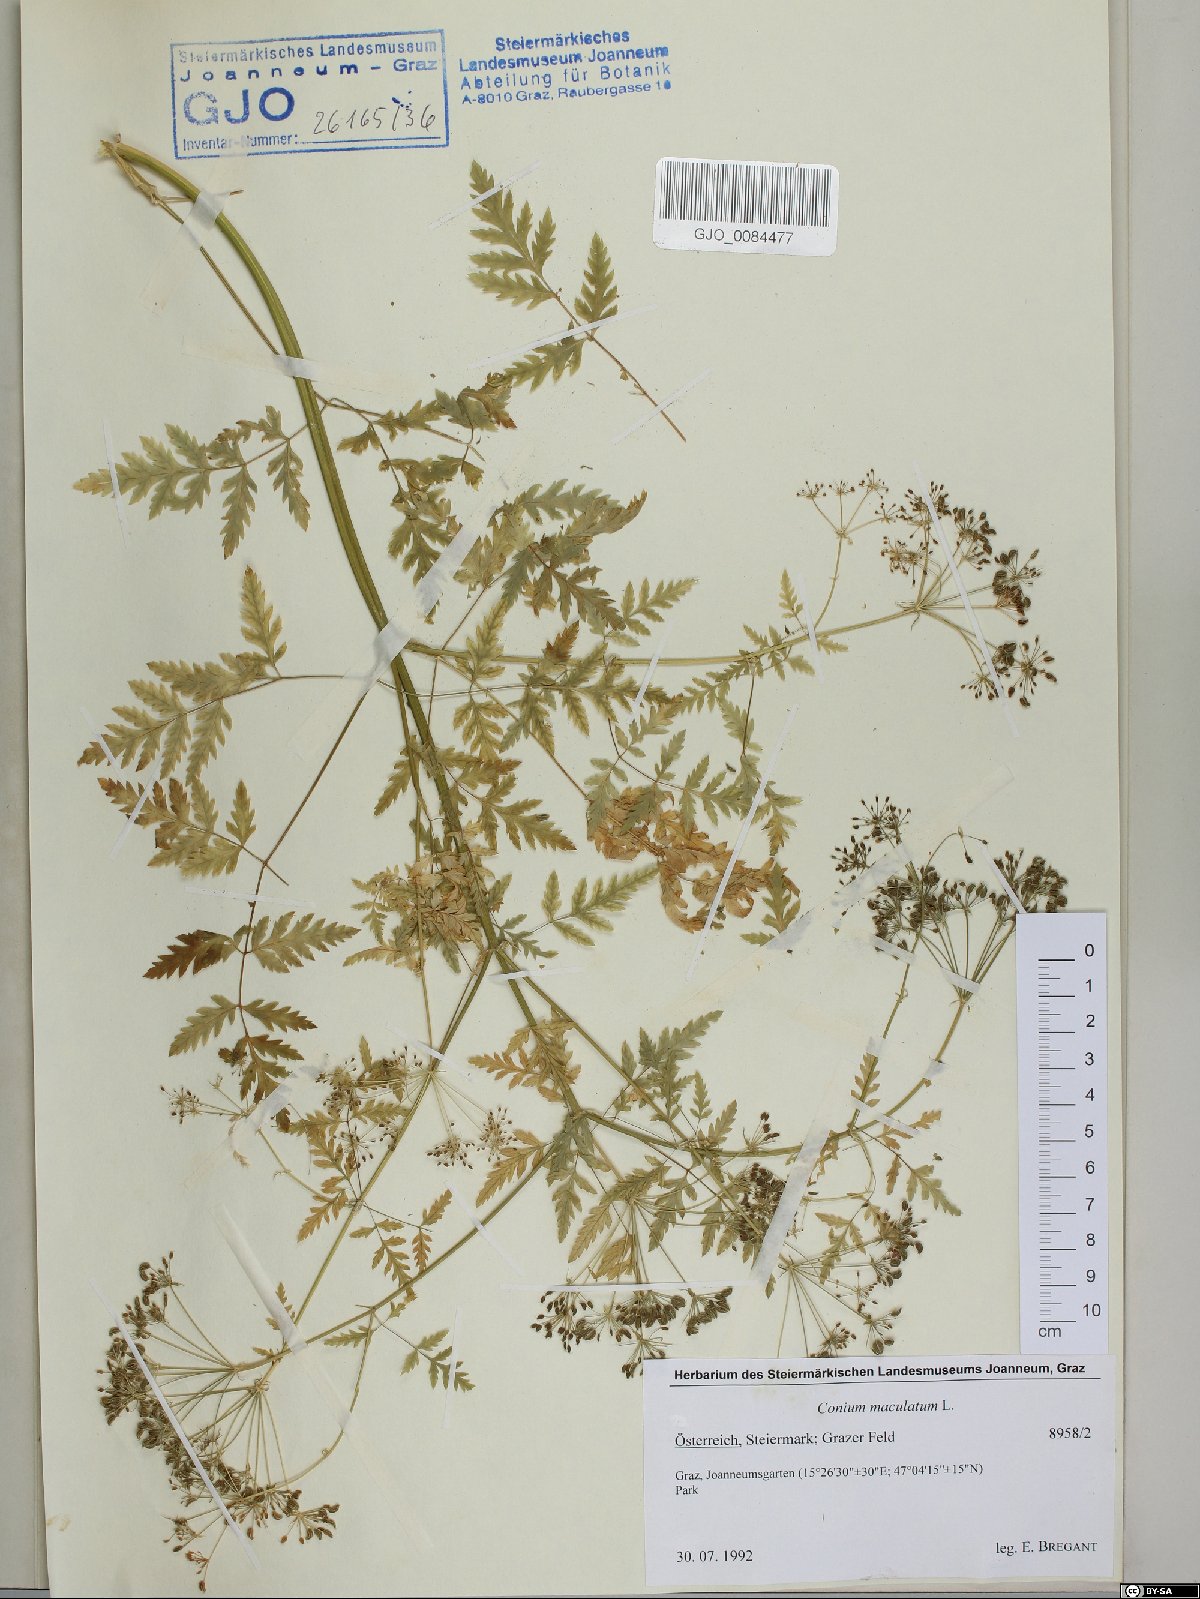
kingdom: Plantae
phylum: Tracheophyta
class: Magnoliopsida
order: Apiales
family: Apiaceae
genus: Conium
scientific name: Conium maculatum
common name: Hemlock
